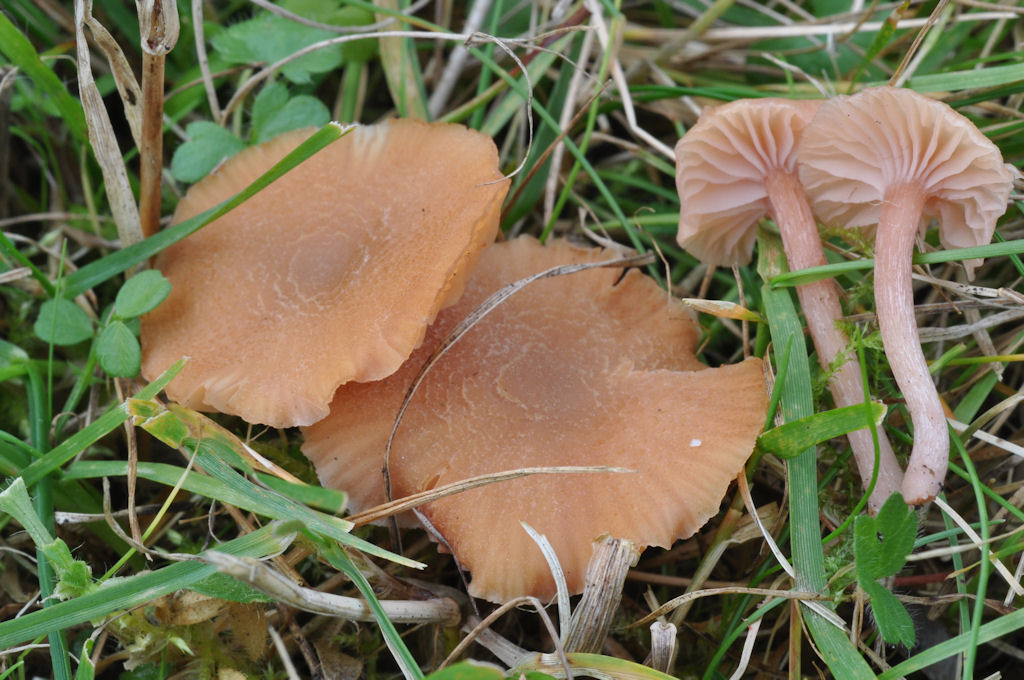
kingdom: Fungi
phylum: Basidiomycota
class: Agaricomycetes
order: Agaricales
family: Hydnangiaceae
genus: Laccaria
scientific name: Laccaria laccata
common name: rød ametysthat
